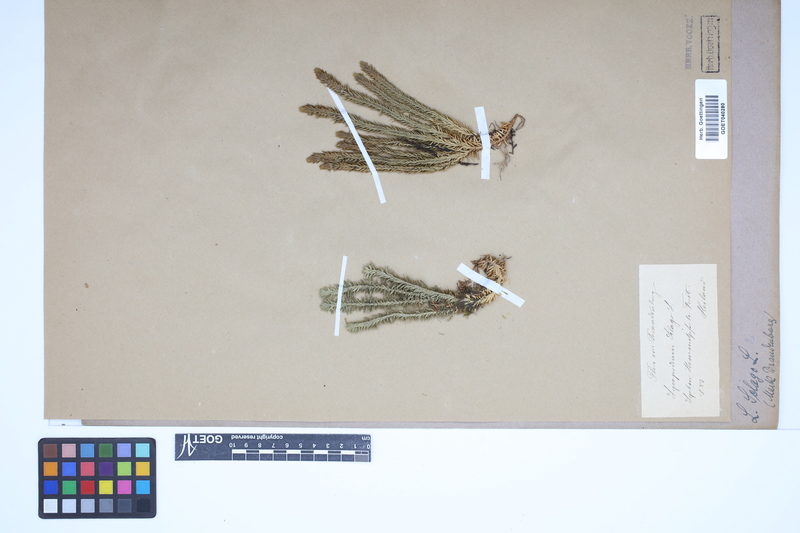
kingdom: Plantae
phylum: Tracheophyta
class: Lycopodiopsida
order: Lycopodiales
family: Lycopodiaceae
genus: Huperzia
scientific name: Huperzia selago
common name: Northern firmoss
